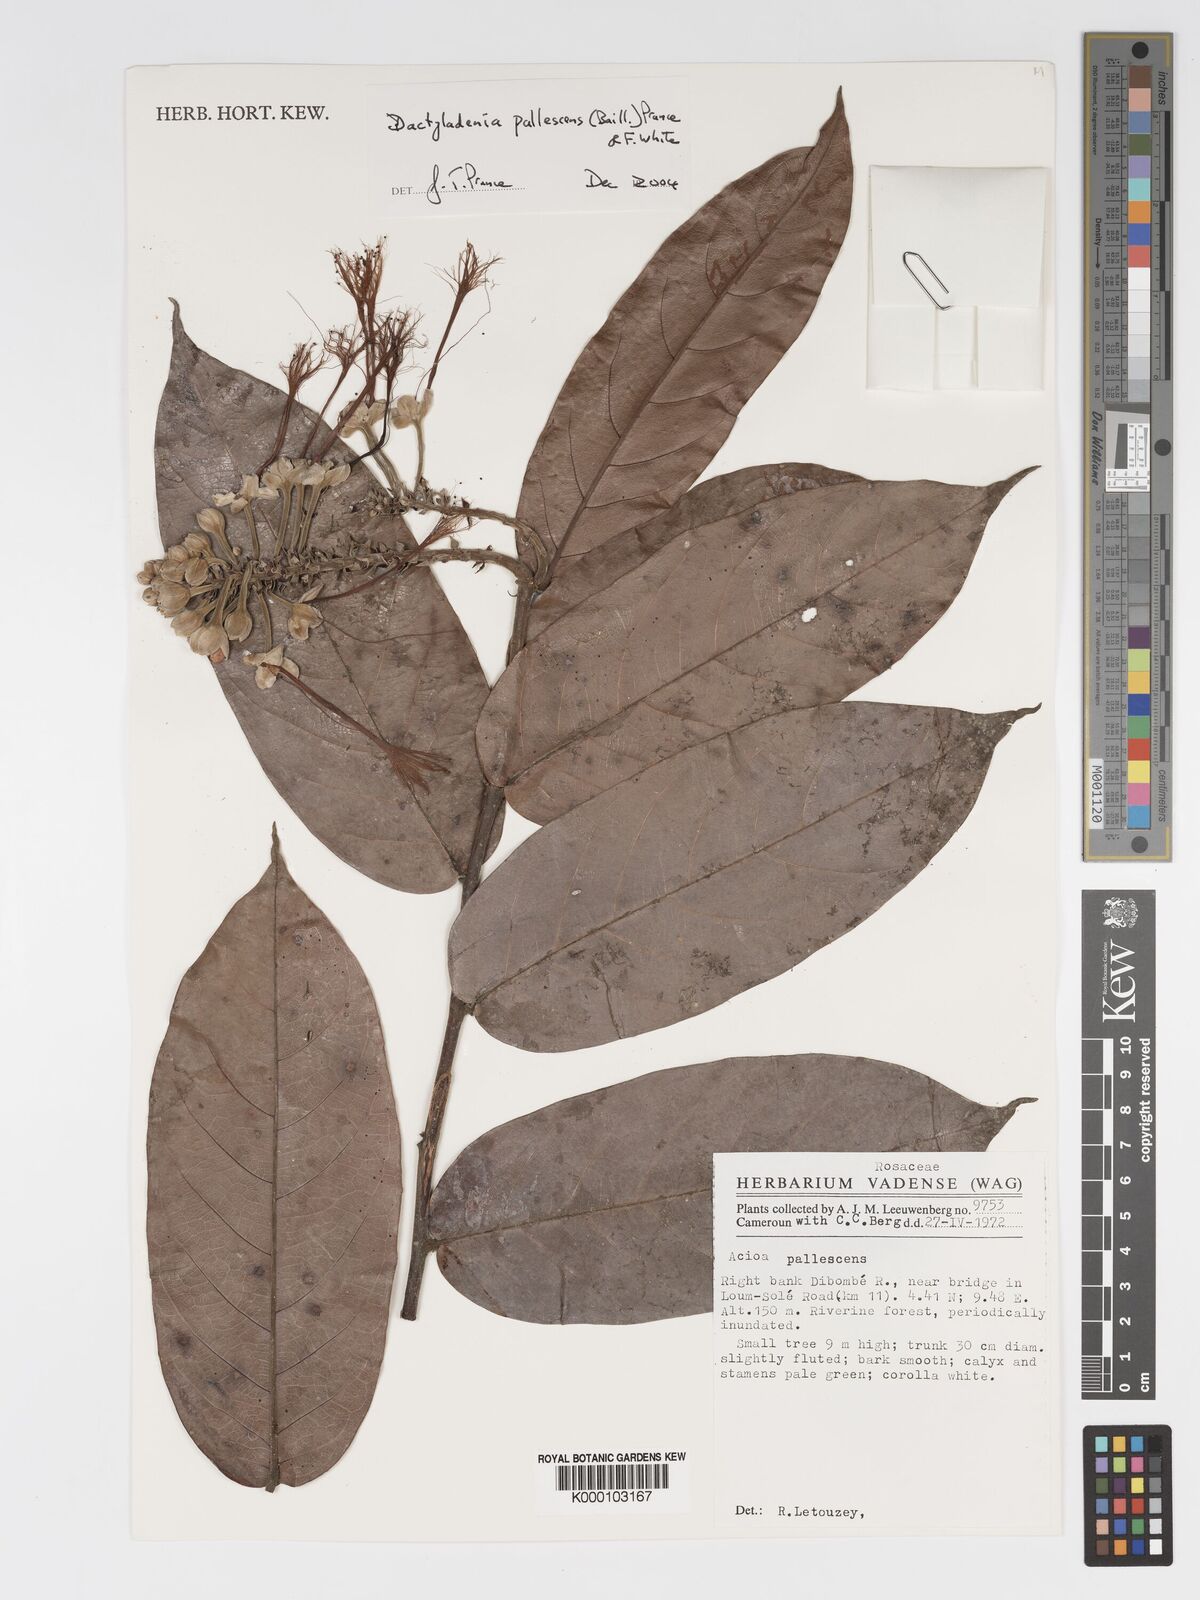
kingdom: Plantae
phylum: Tracheophyta
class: Magnoliopsida
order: Malpighiales
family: Chrysobalanaceae
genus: Dactyladenia
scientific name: Dactyladenia pallescens
